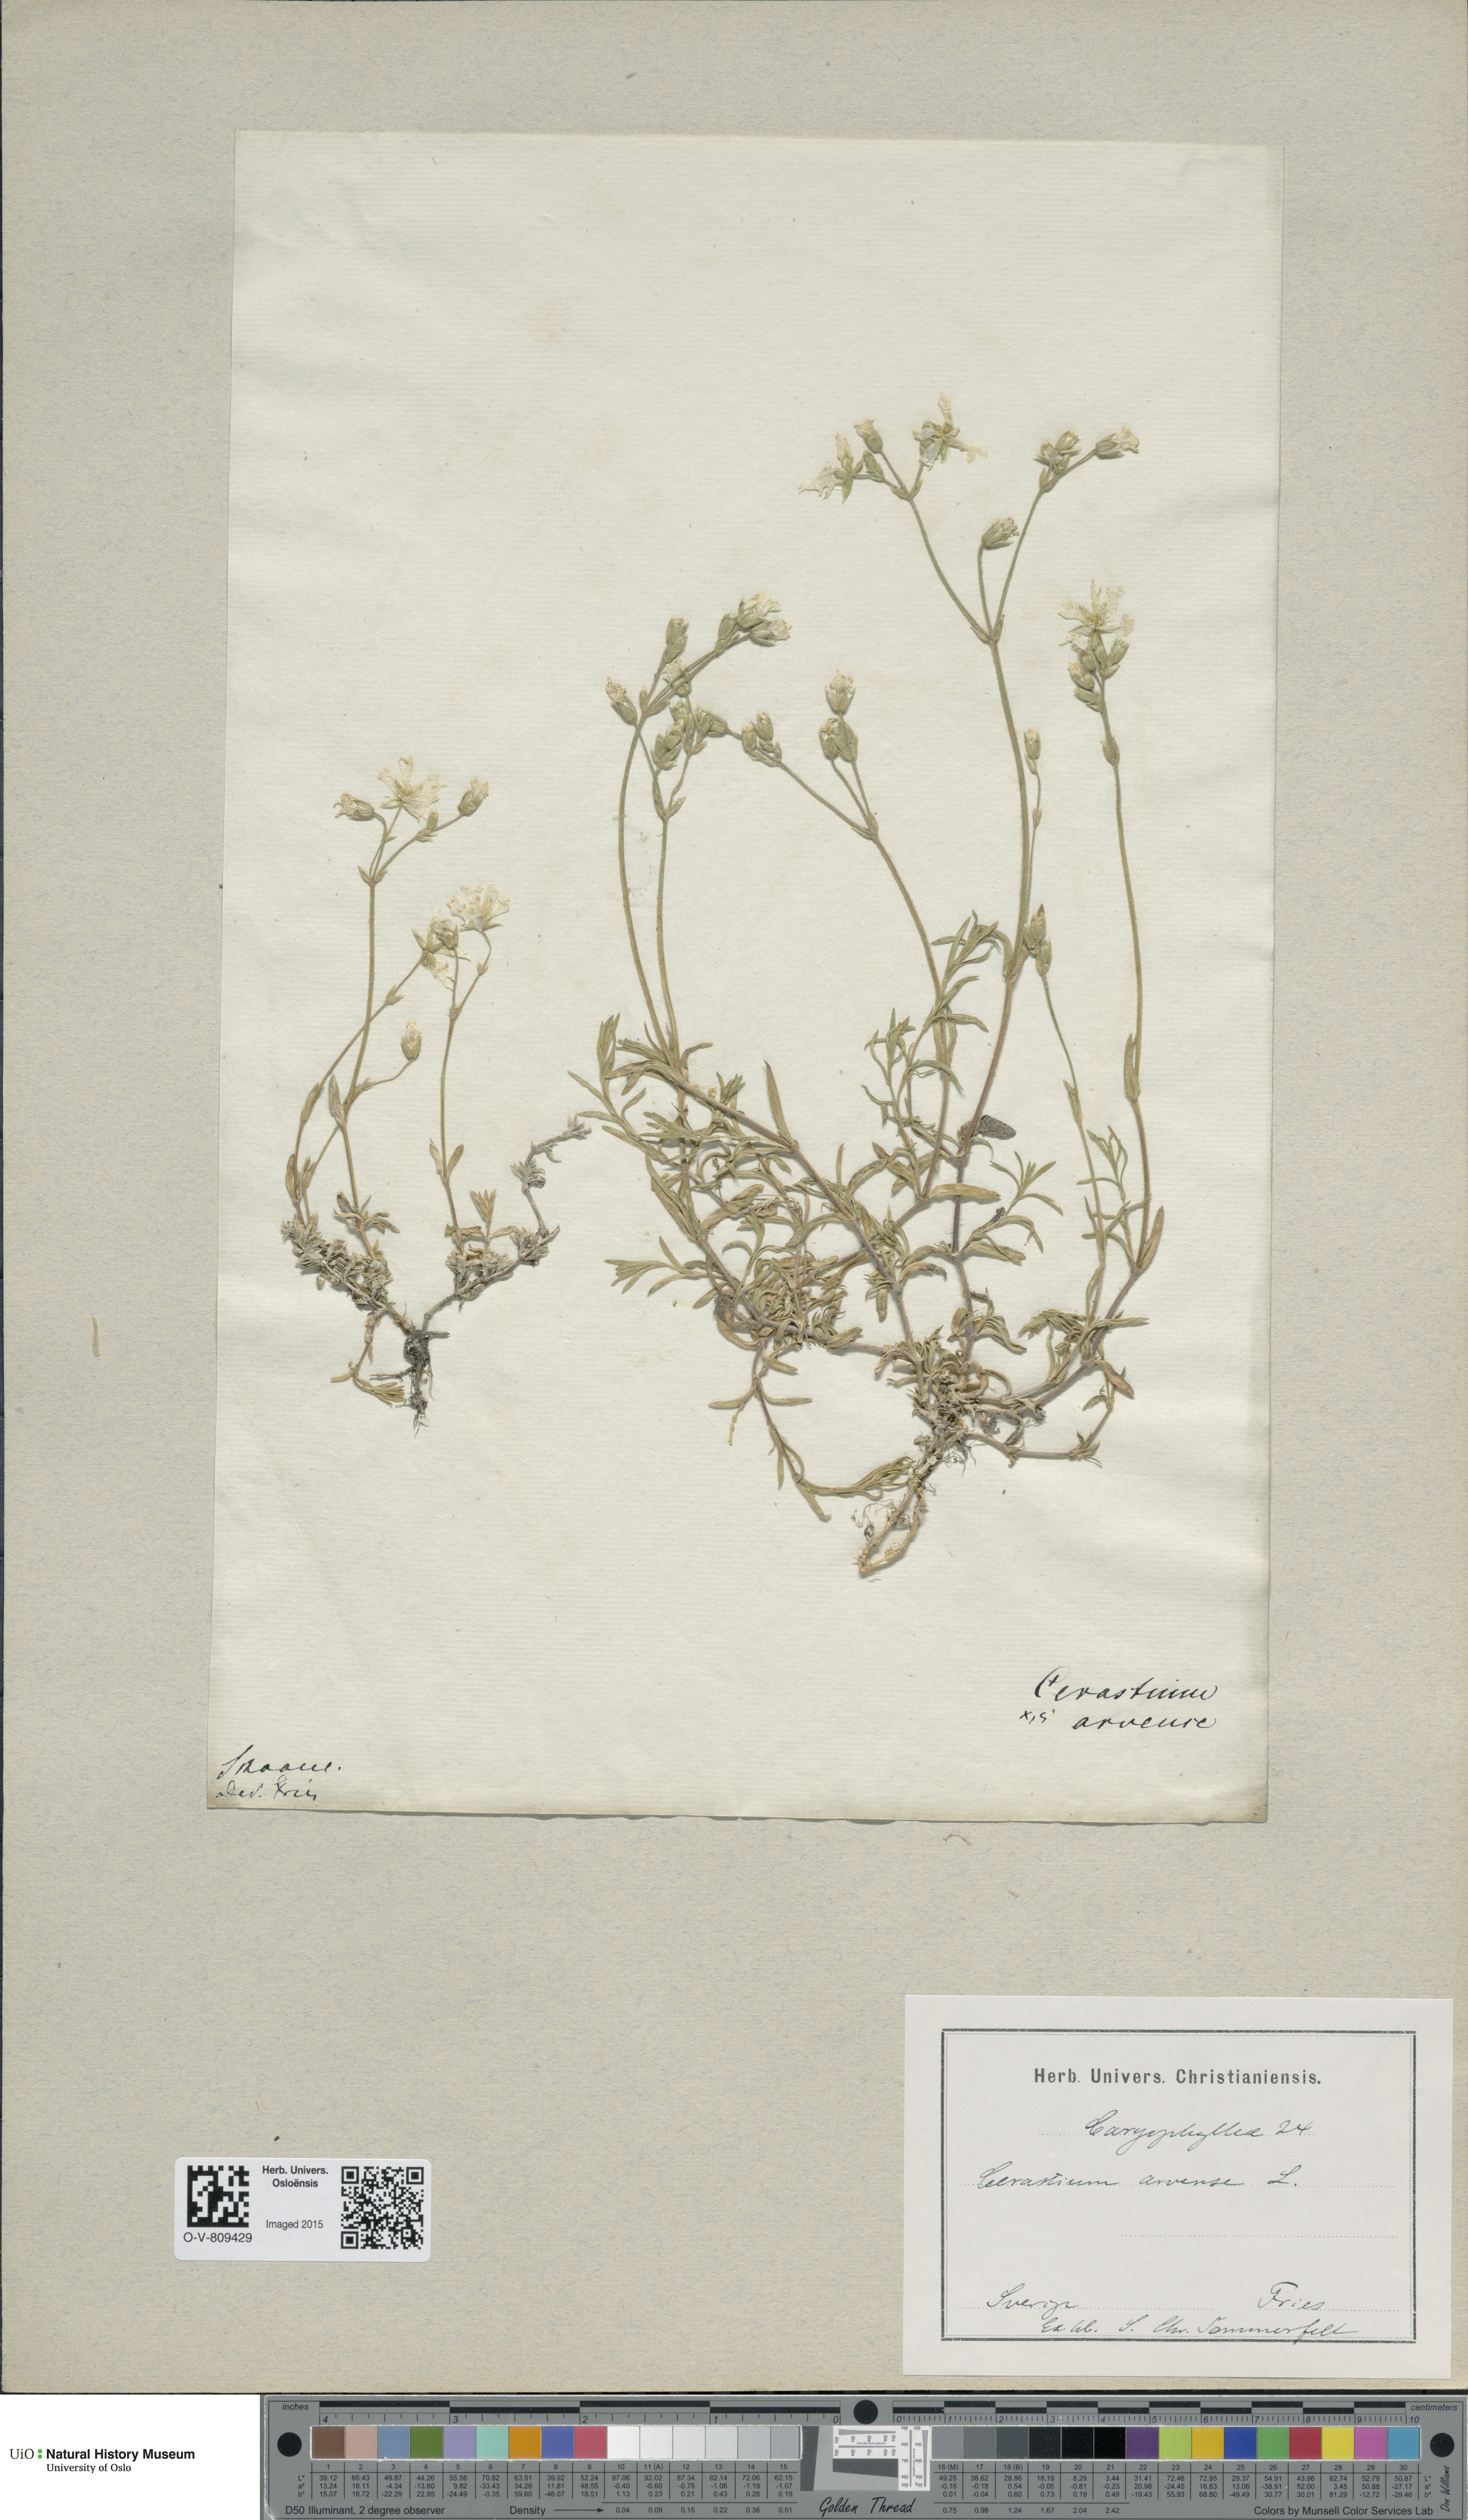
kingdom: Plantae
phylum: Tracheophyta
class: Magnoliopsida
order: Caryophyllales
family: Caryophyllaceae
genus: Cerastium
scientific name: Cerastium arvense
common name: Field mouse-ear
